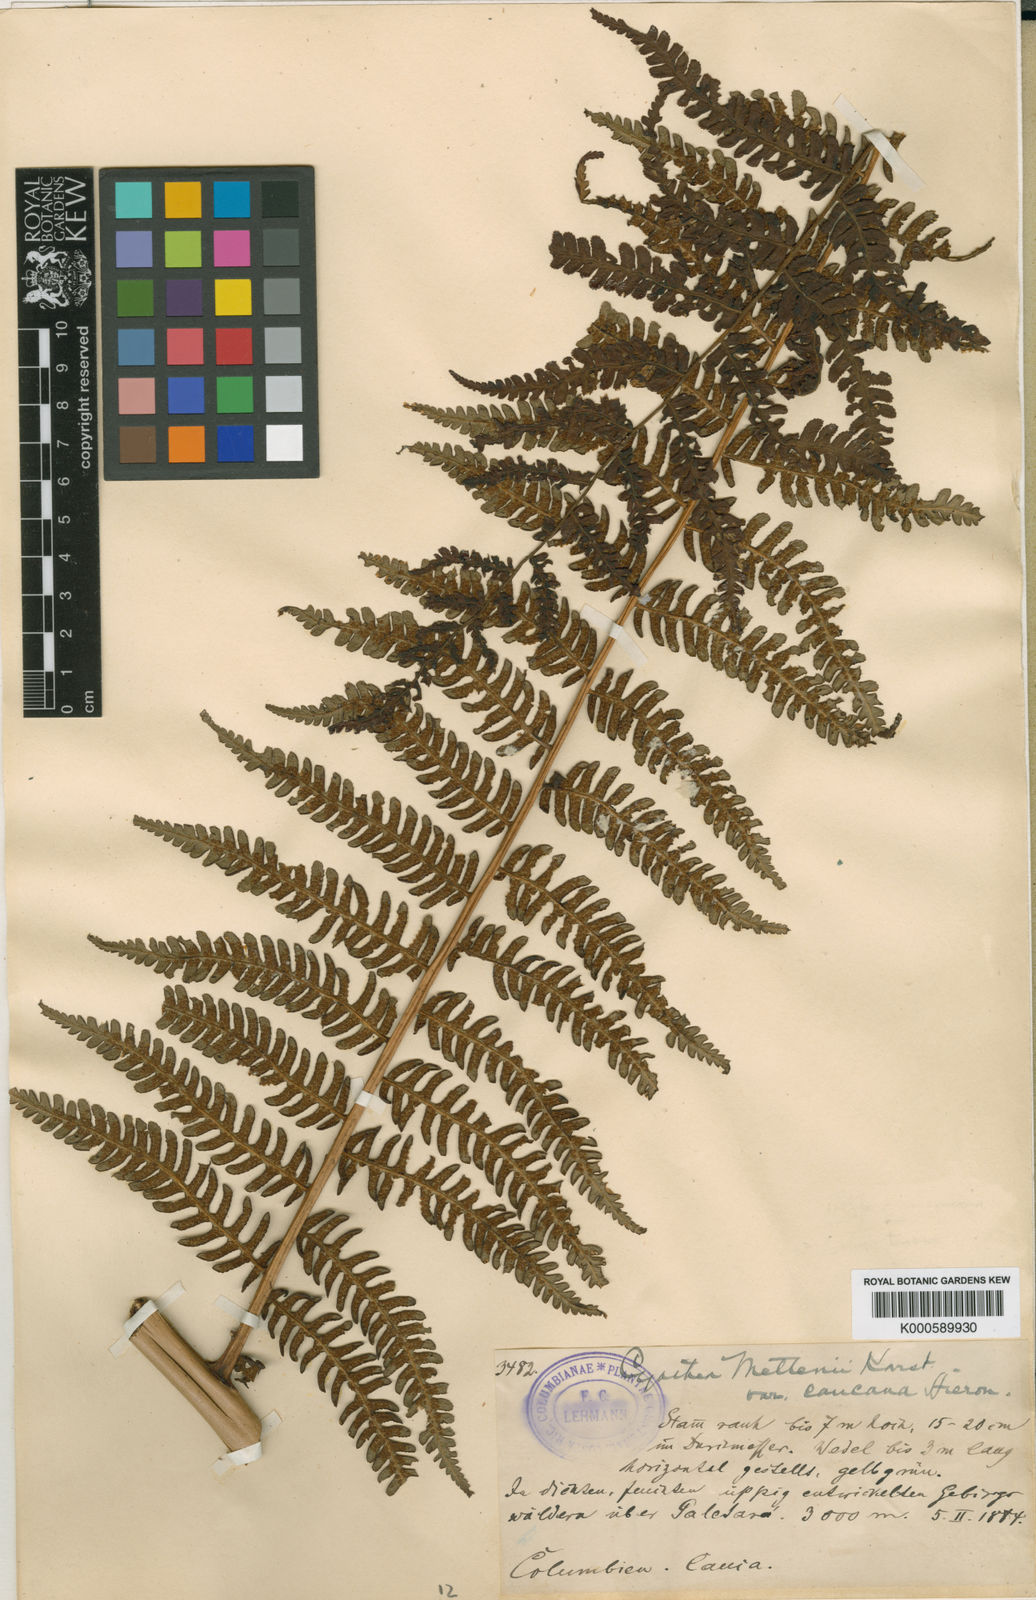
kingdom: Plantae
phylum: Tracheophyta
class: Polypodiopsida
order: Cyatheales
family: Cyatheaceae
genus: Cyathea
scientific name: Cyathea caracasana
